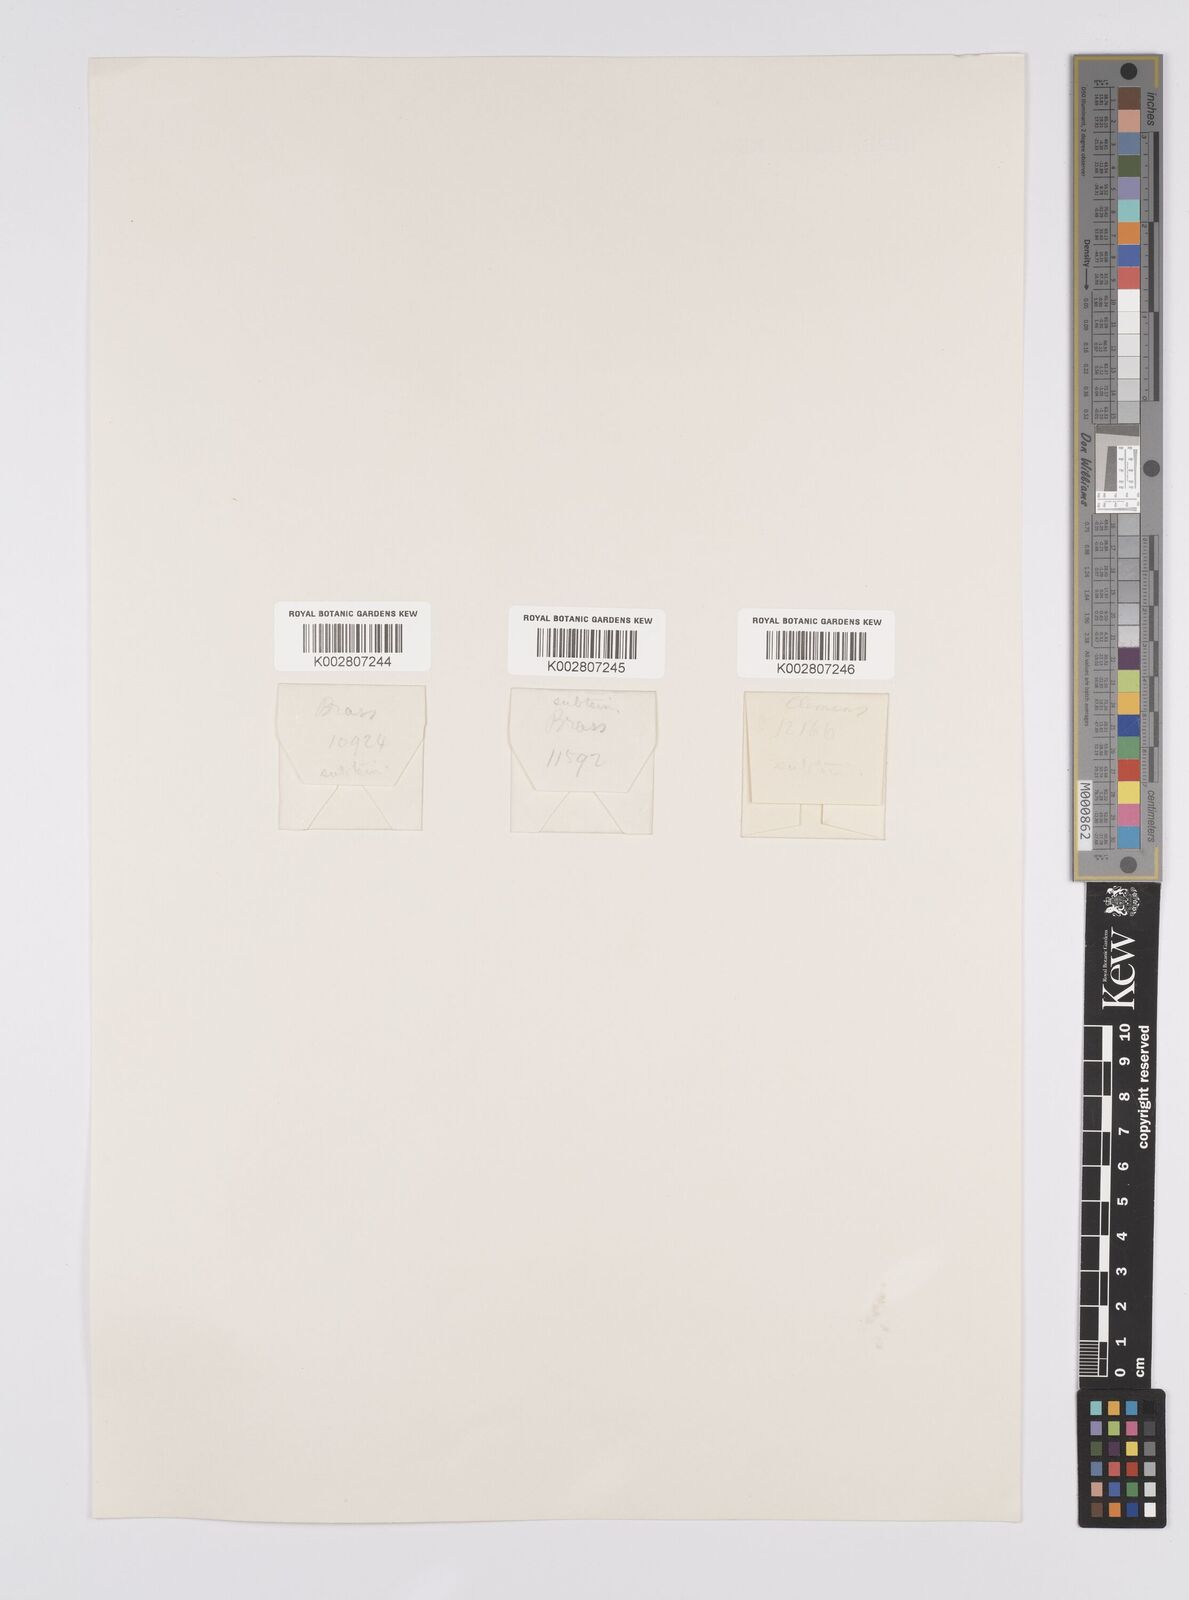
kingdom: Plantae
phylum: Tracheophyta
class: Liliopsida
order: Poales
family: Cyperaceae
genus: Carex
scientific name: Carex brunnea
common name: Greater brown sedge
